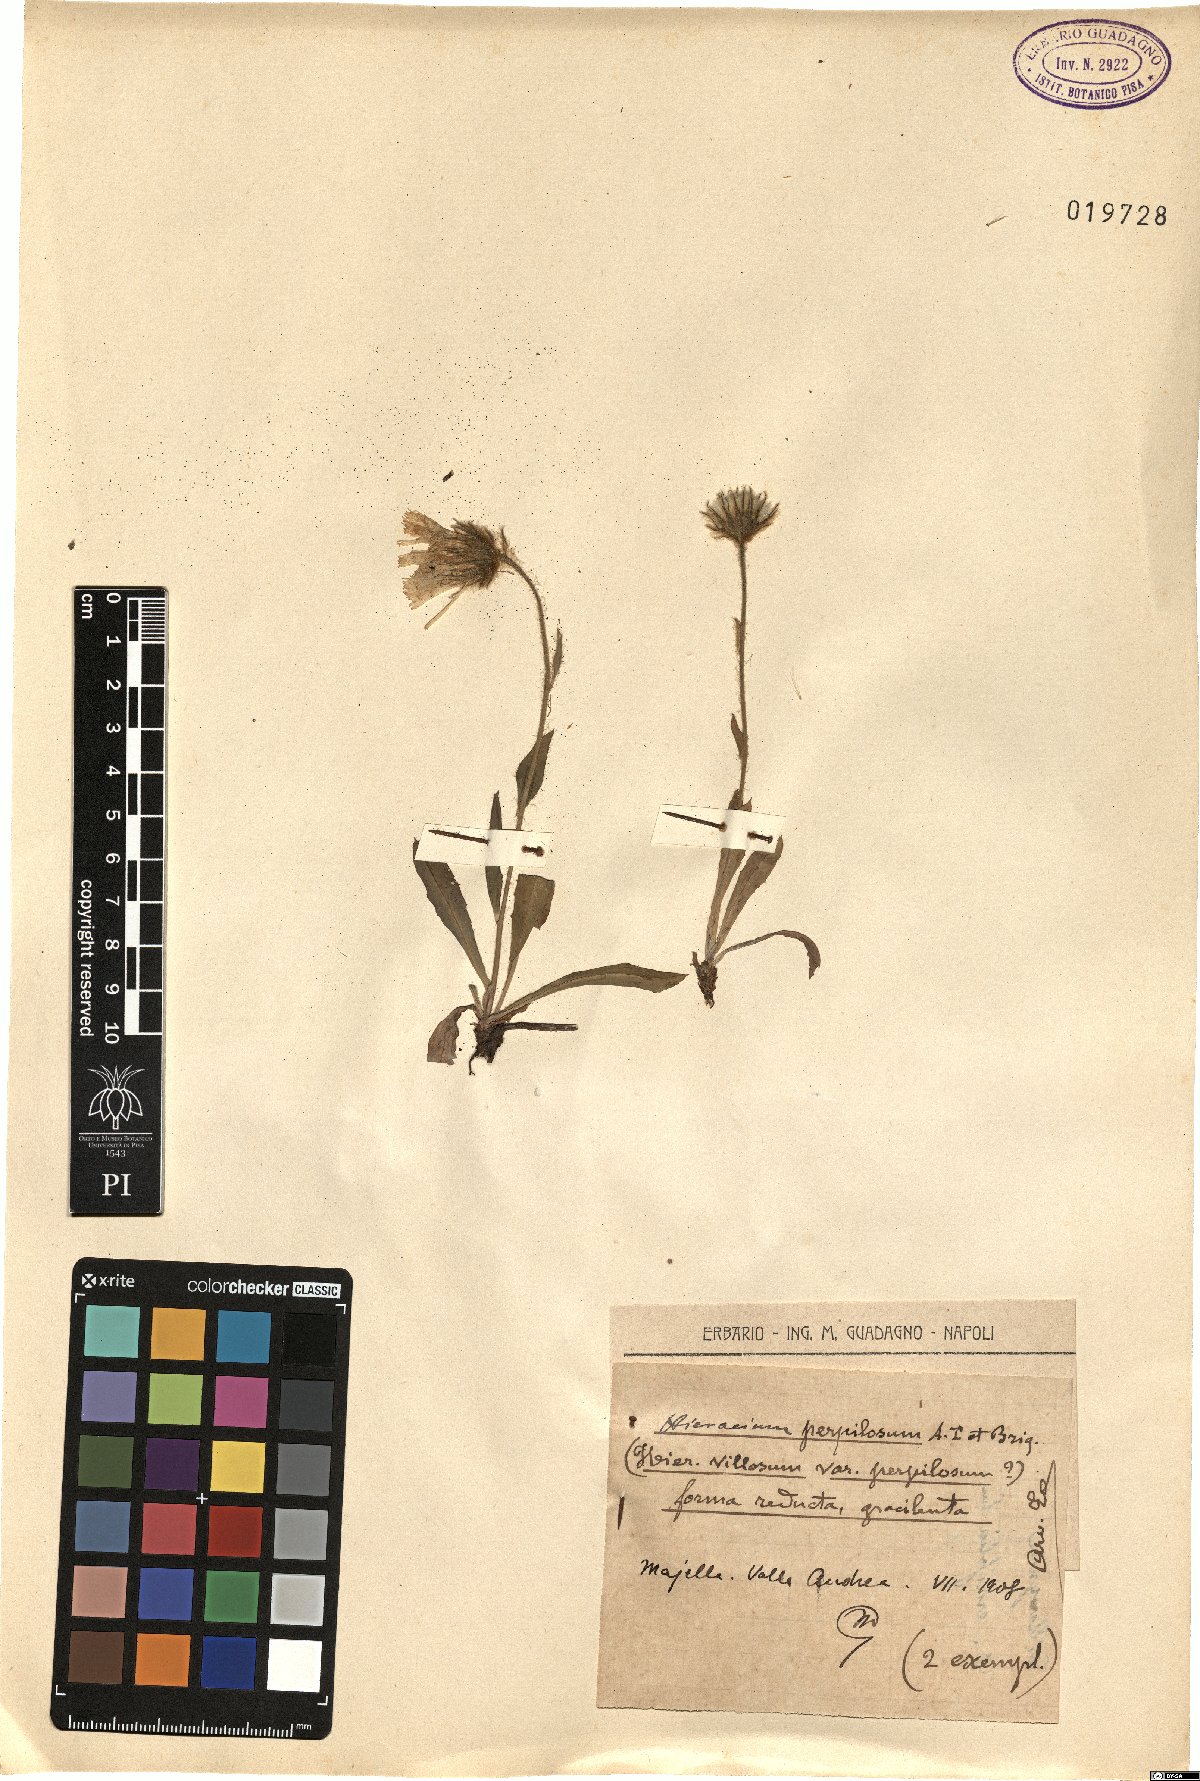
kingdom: Plantae
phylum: Tracheophyta
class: Magnoliopsida
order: Asterales
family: Asteraceae
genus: Hieracium
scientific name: Hieracium pilosum
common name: Fimbriate-pitted hawkweed
